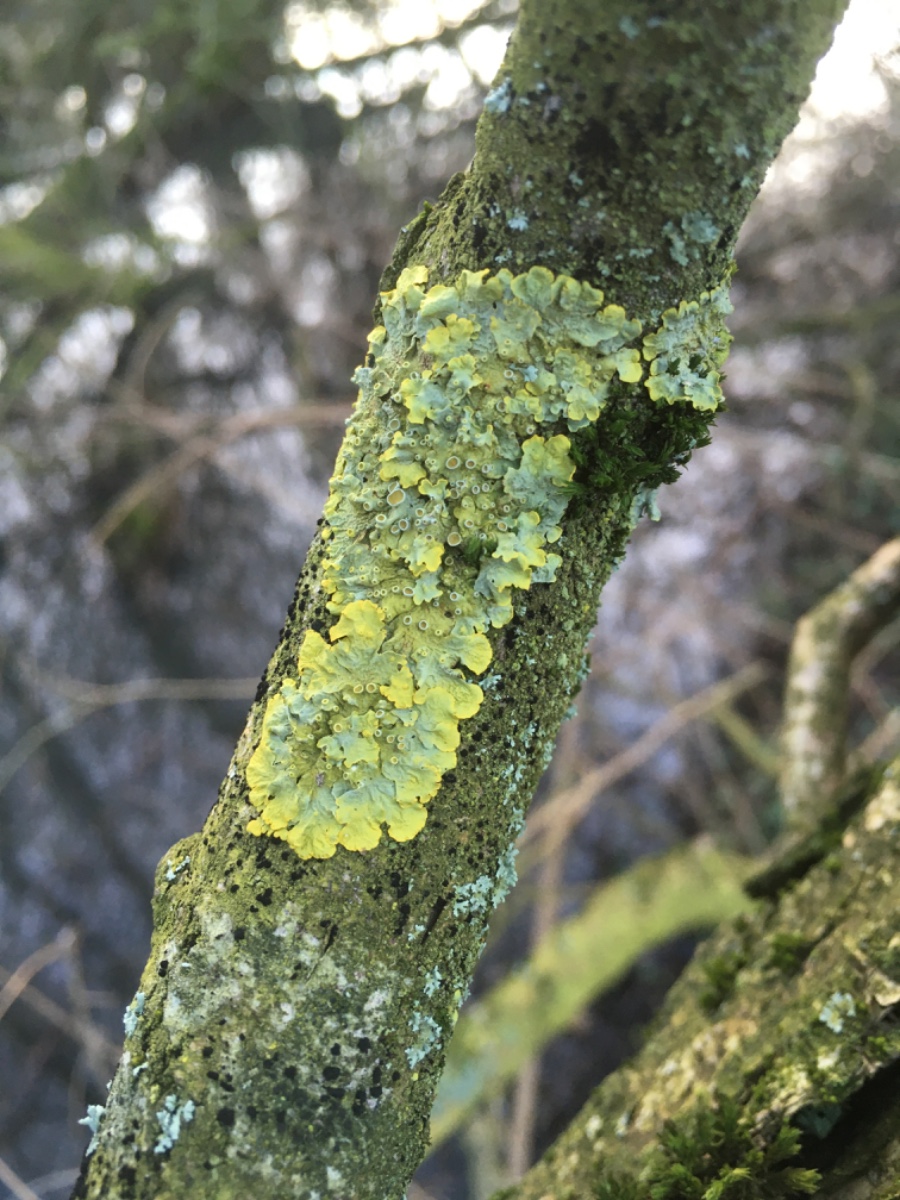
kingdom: Fungi
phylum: Ascomycota
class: Lecanoromycetes
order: Teloschistales
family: Teloschistaceae
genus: Xanthoria
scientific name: Xanthoria parietina
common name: almindelig væggelav
